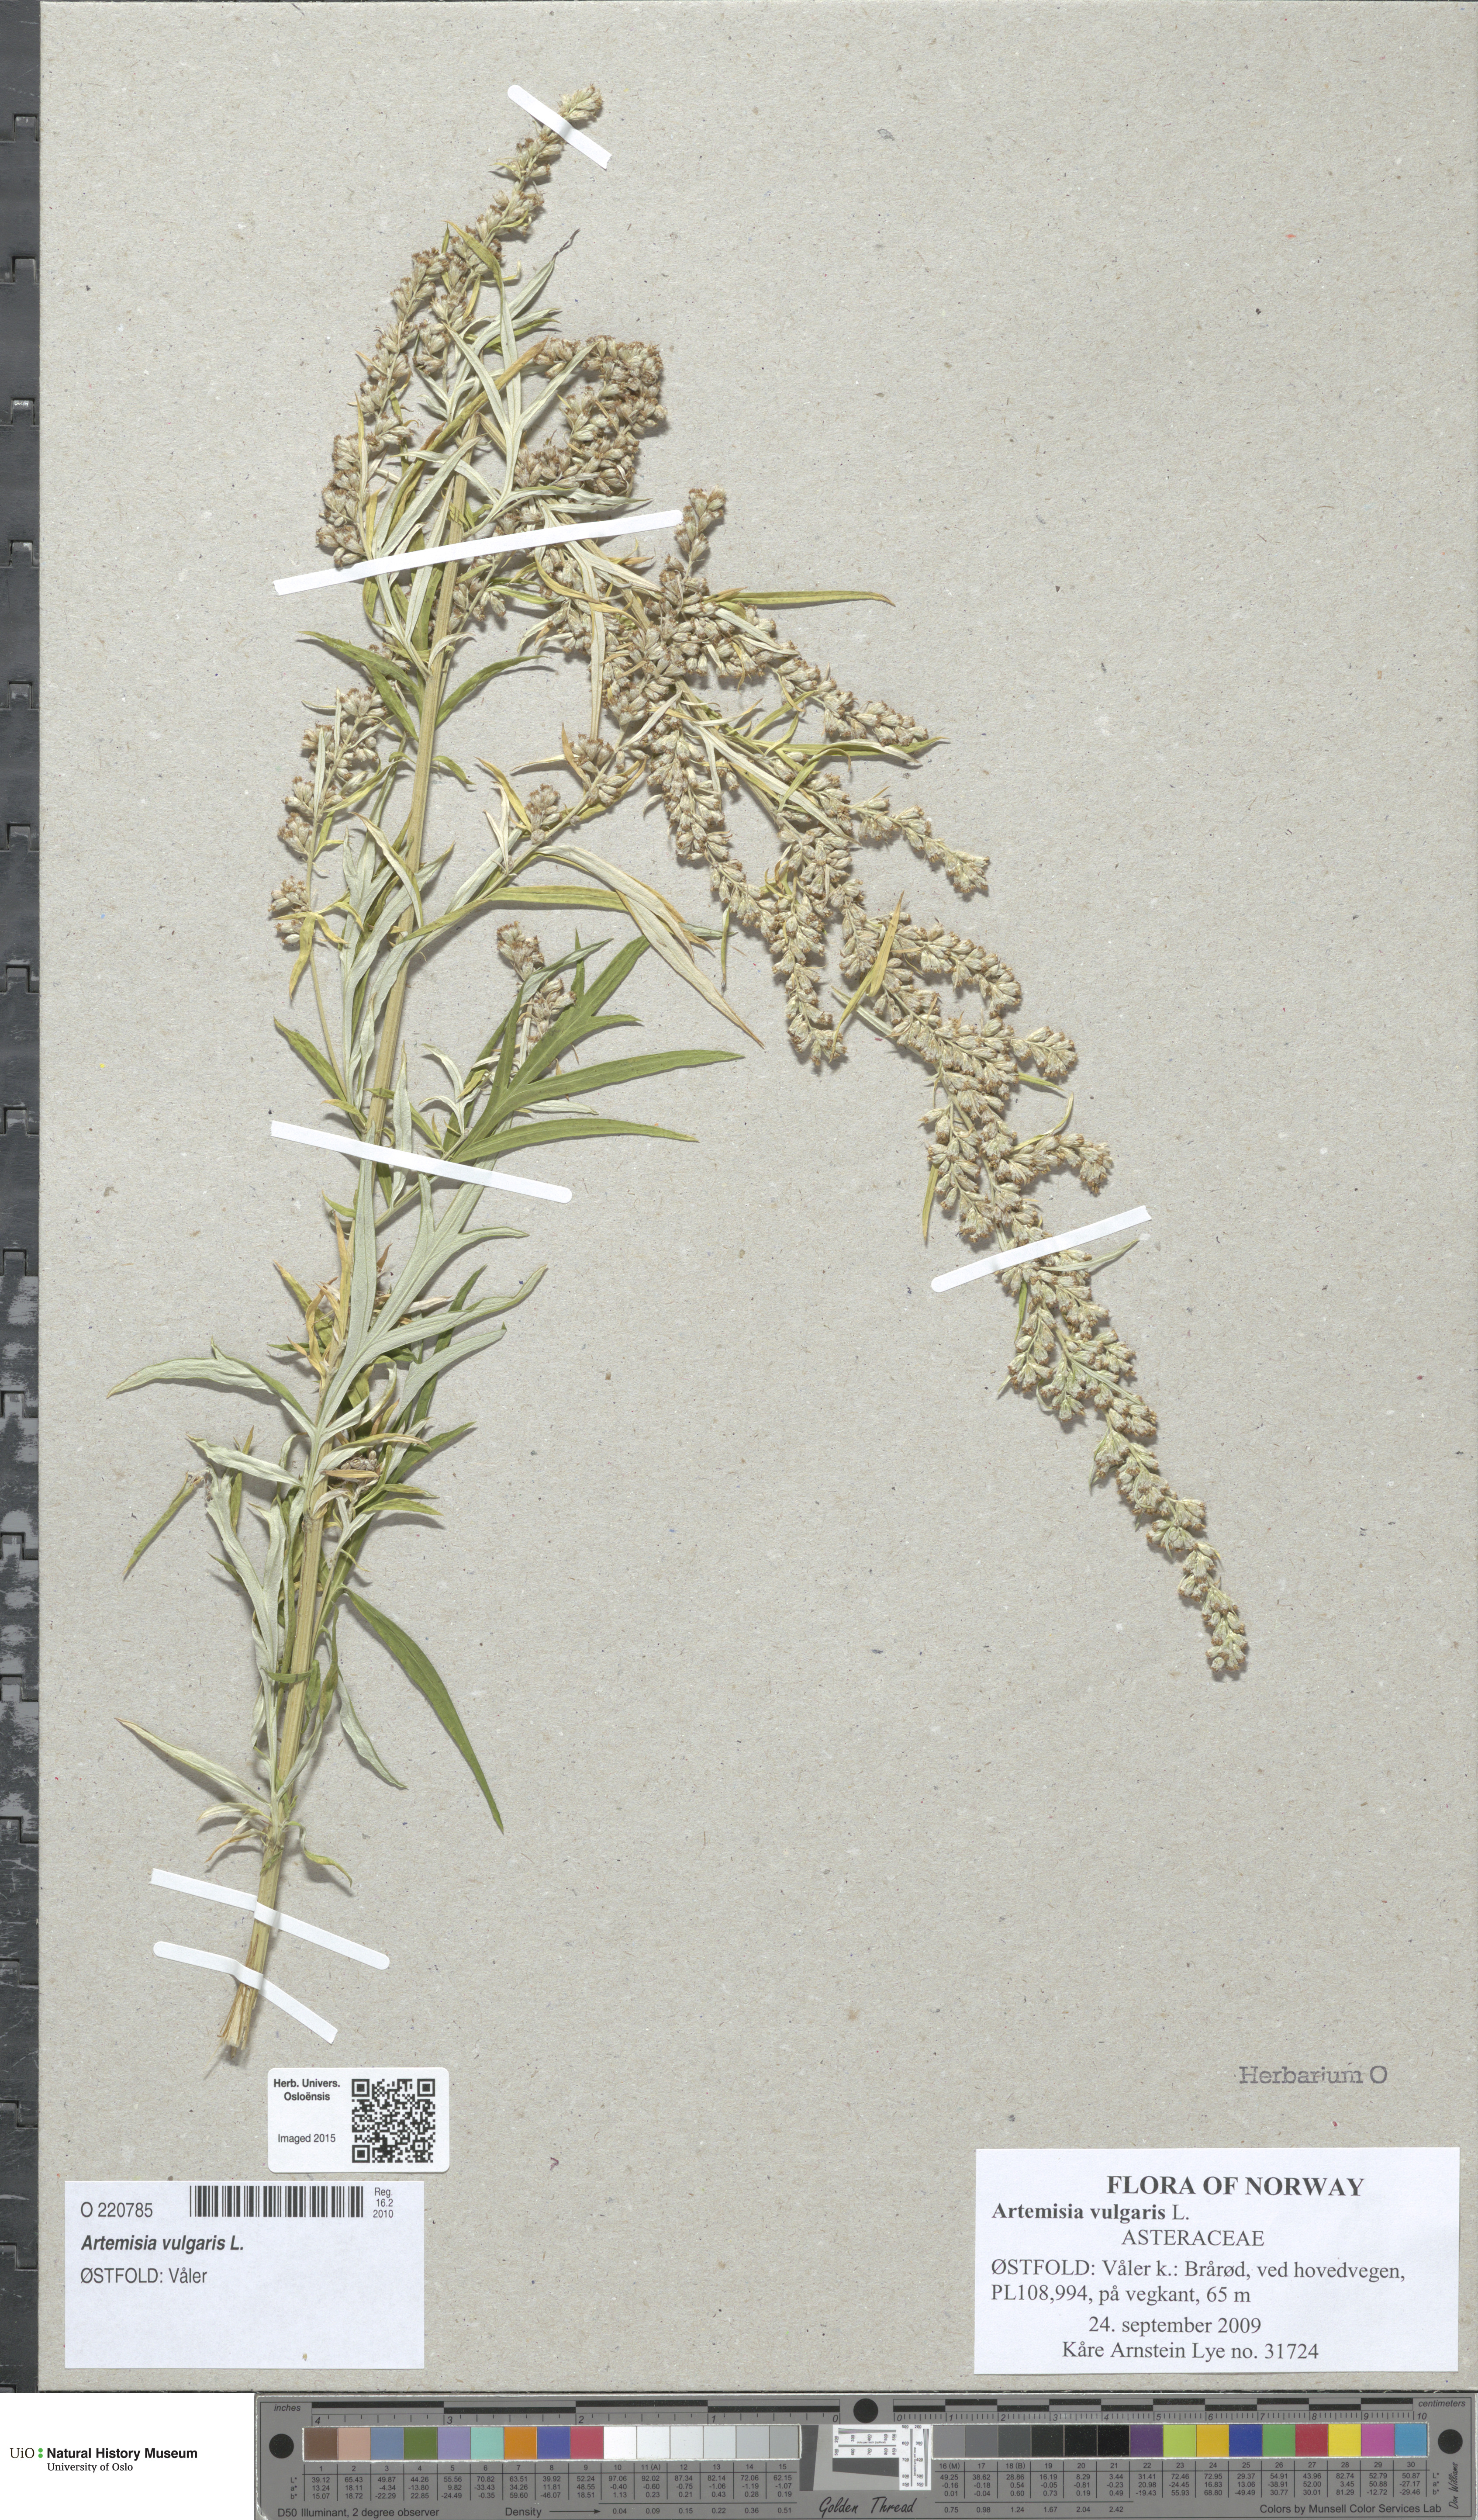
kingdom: Plantae
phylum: Tracheophyta
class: Magnoliopsida
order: Asterales
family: Asteraceae
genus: Artemisia
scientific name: Artemisia vulgaris
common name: Mugwort
